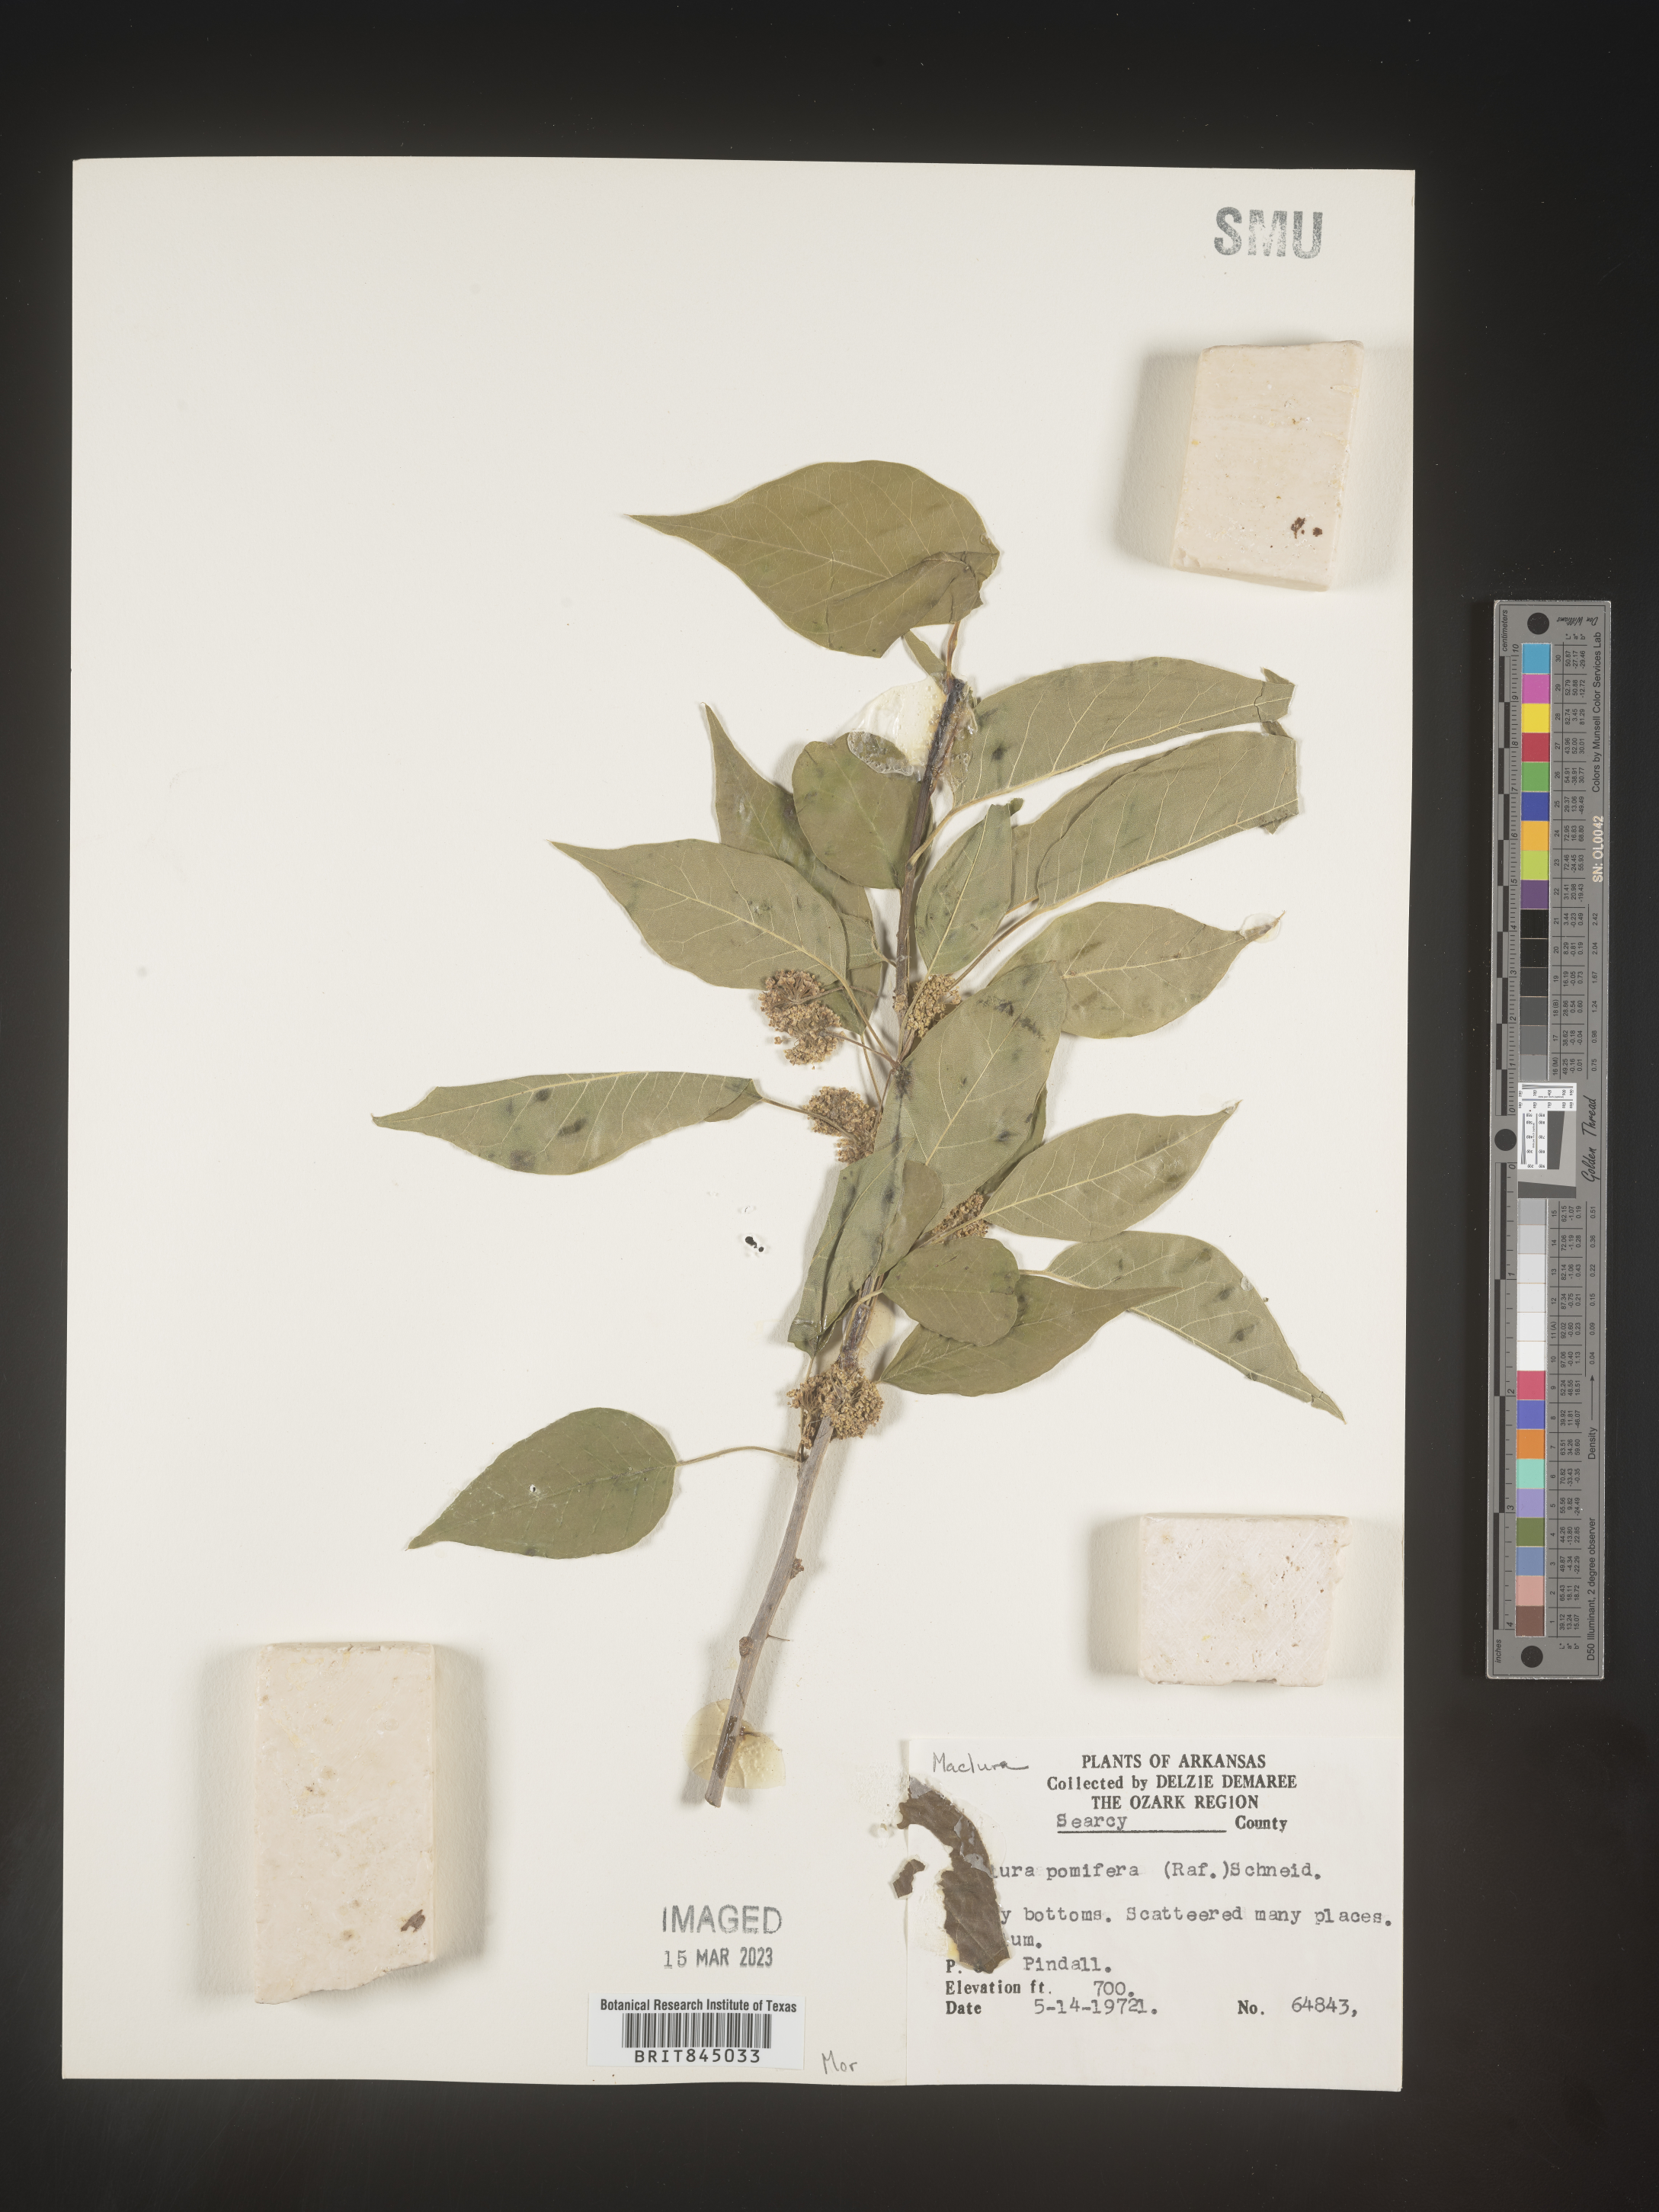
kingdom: Plantae
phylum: Tracheophyta
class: Magnoliopsida
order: Rosales
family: Moraceae
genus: Maclura
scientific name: Maclura pomifera
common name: Osage-orange
